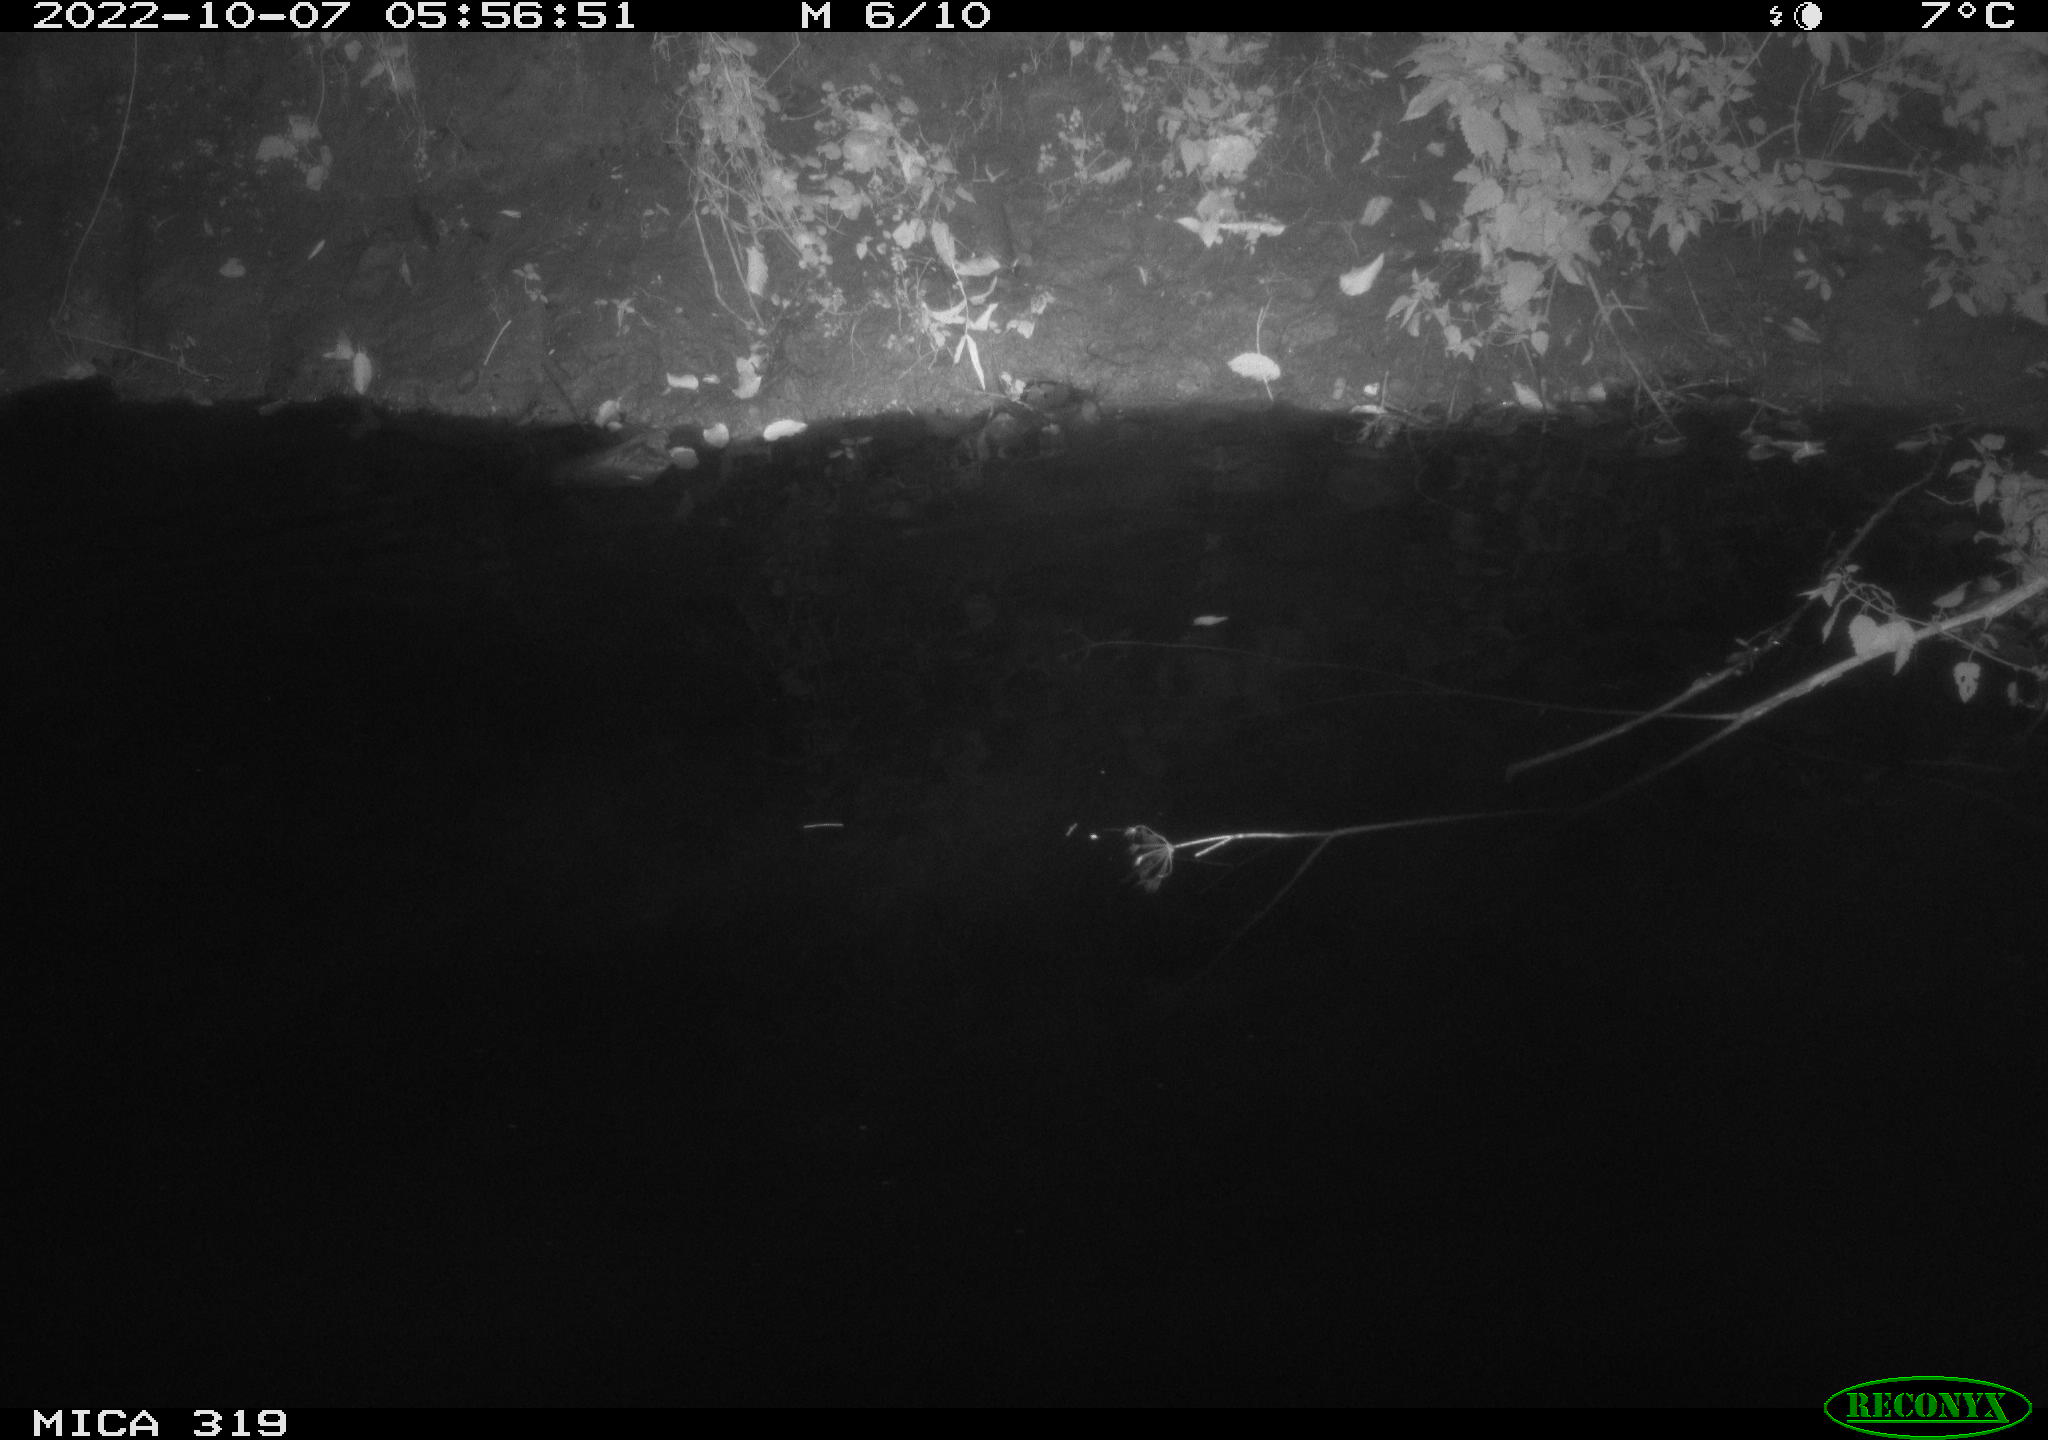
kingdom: Animalia
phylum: Chordata
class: Aves
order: Anseriformes
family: Anatidae
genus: Anas
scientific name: Anas
